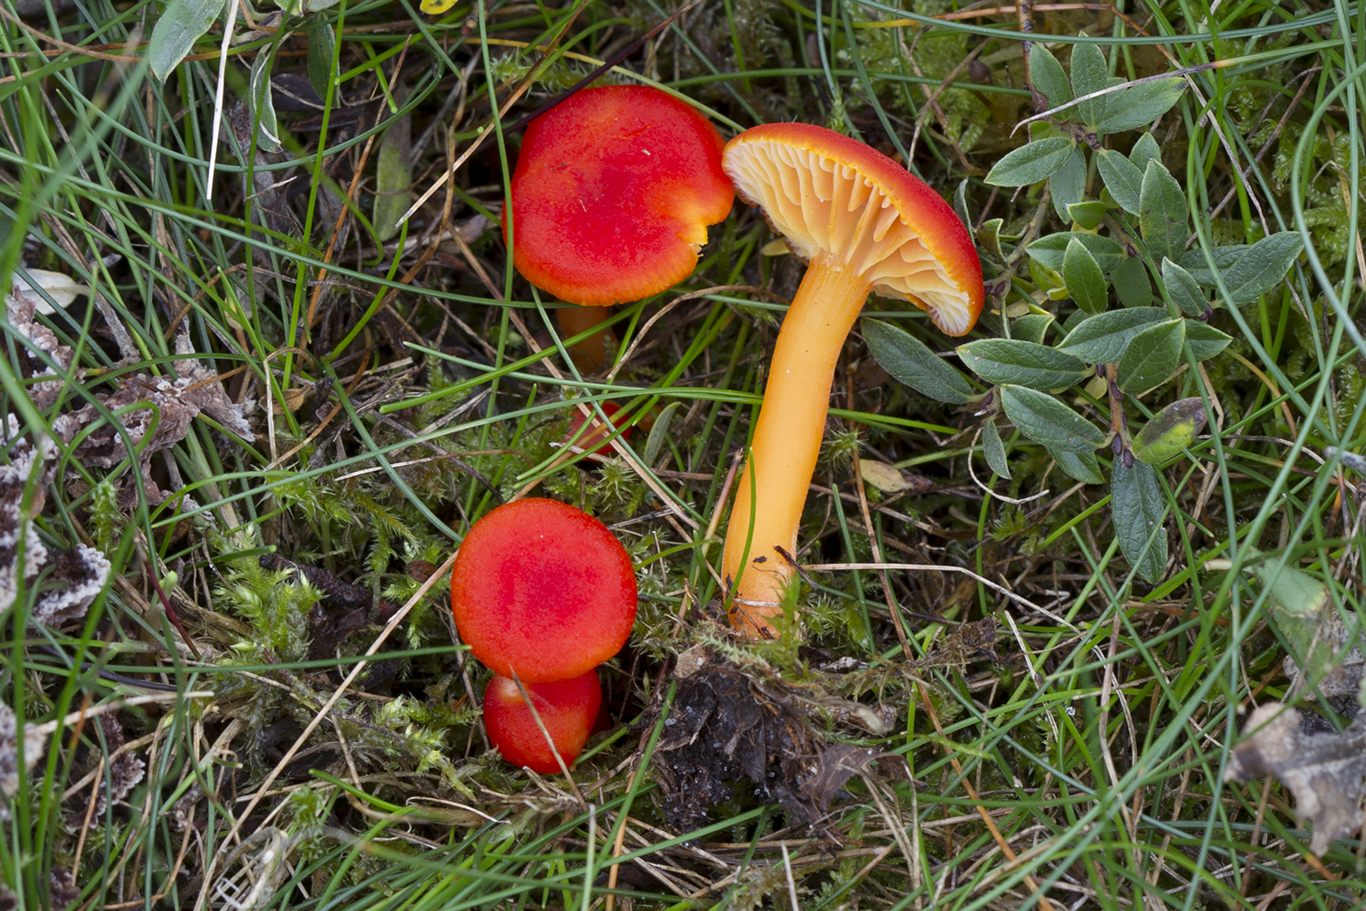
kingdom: Fungi
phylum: Basidiomycota
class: Agaricomycetes
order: Agaricales
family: Hygrophoraceae
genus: Hygrocybe
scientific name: Hygrocybe miniata
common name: mønje-vokshat
